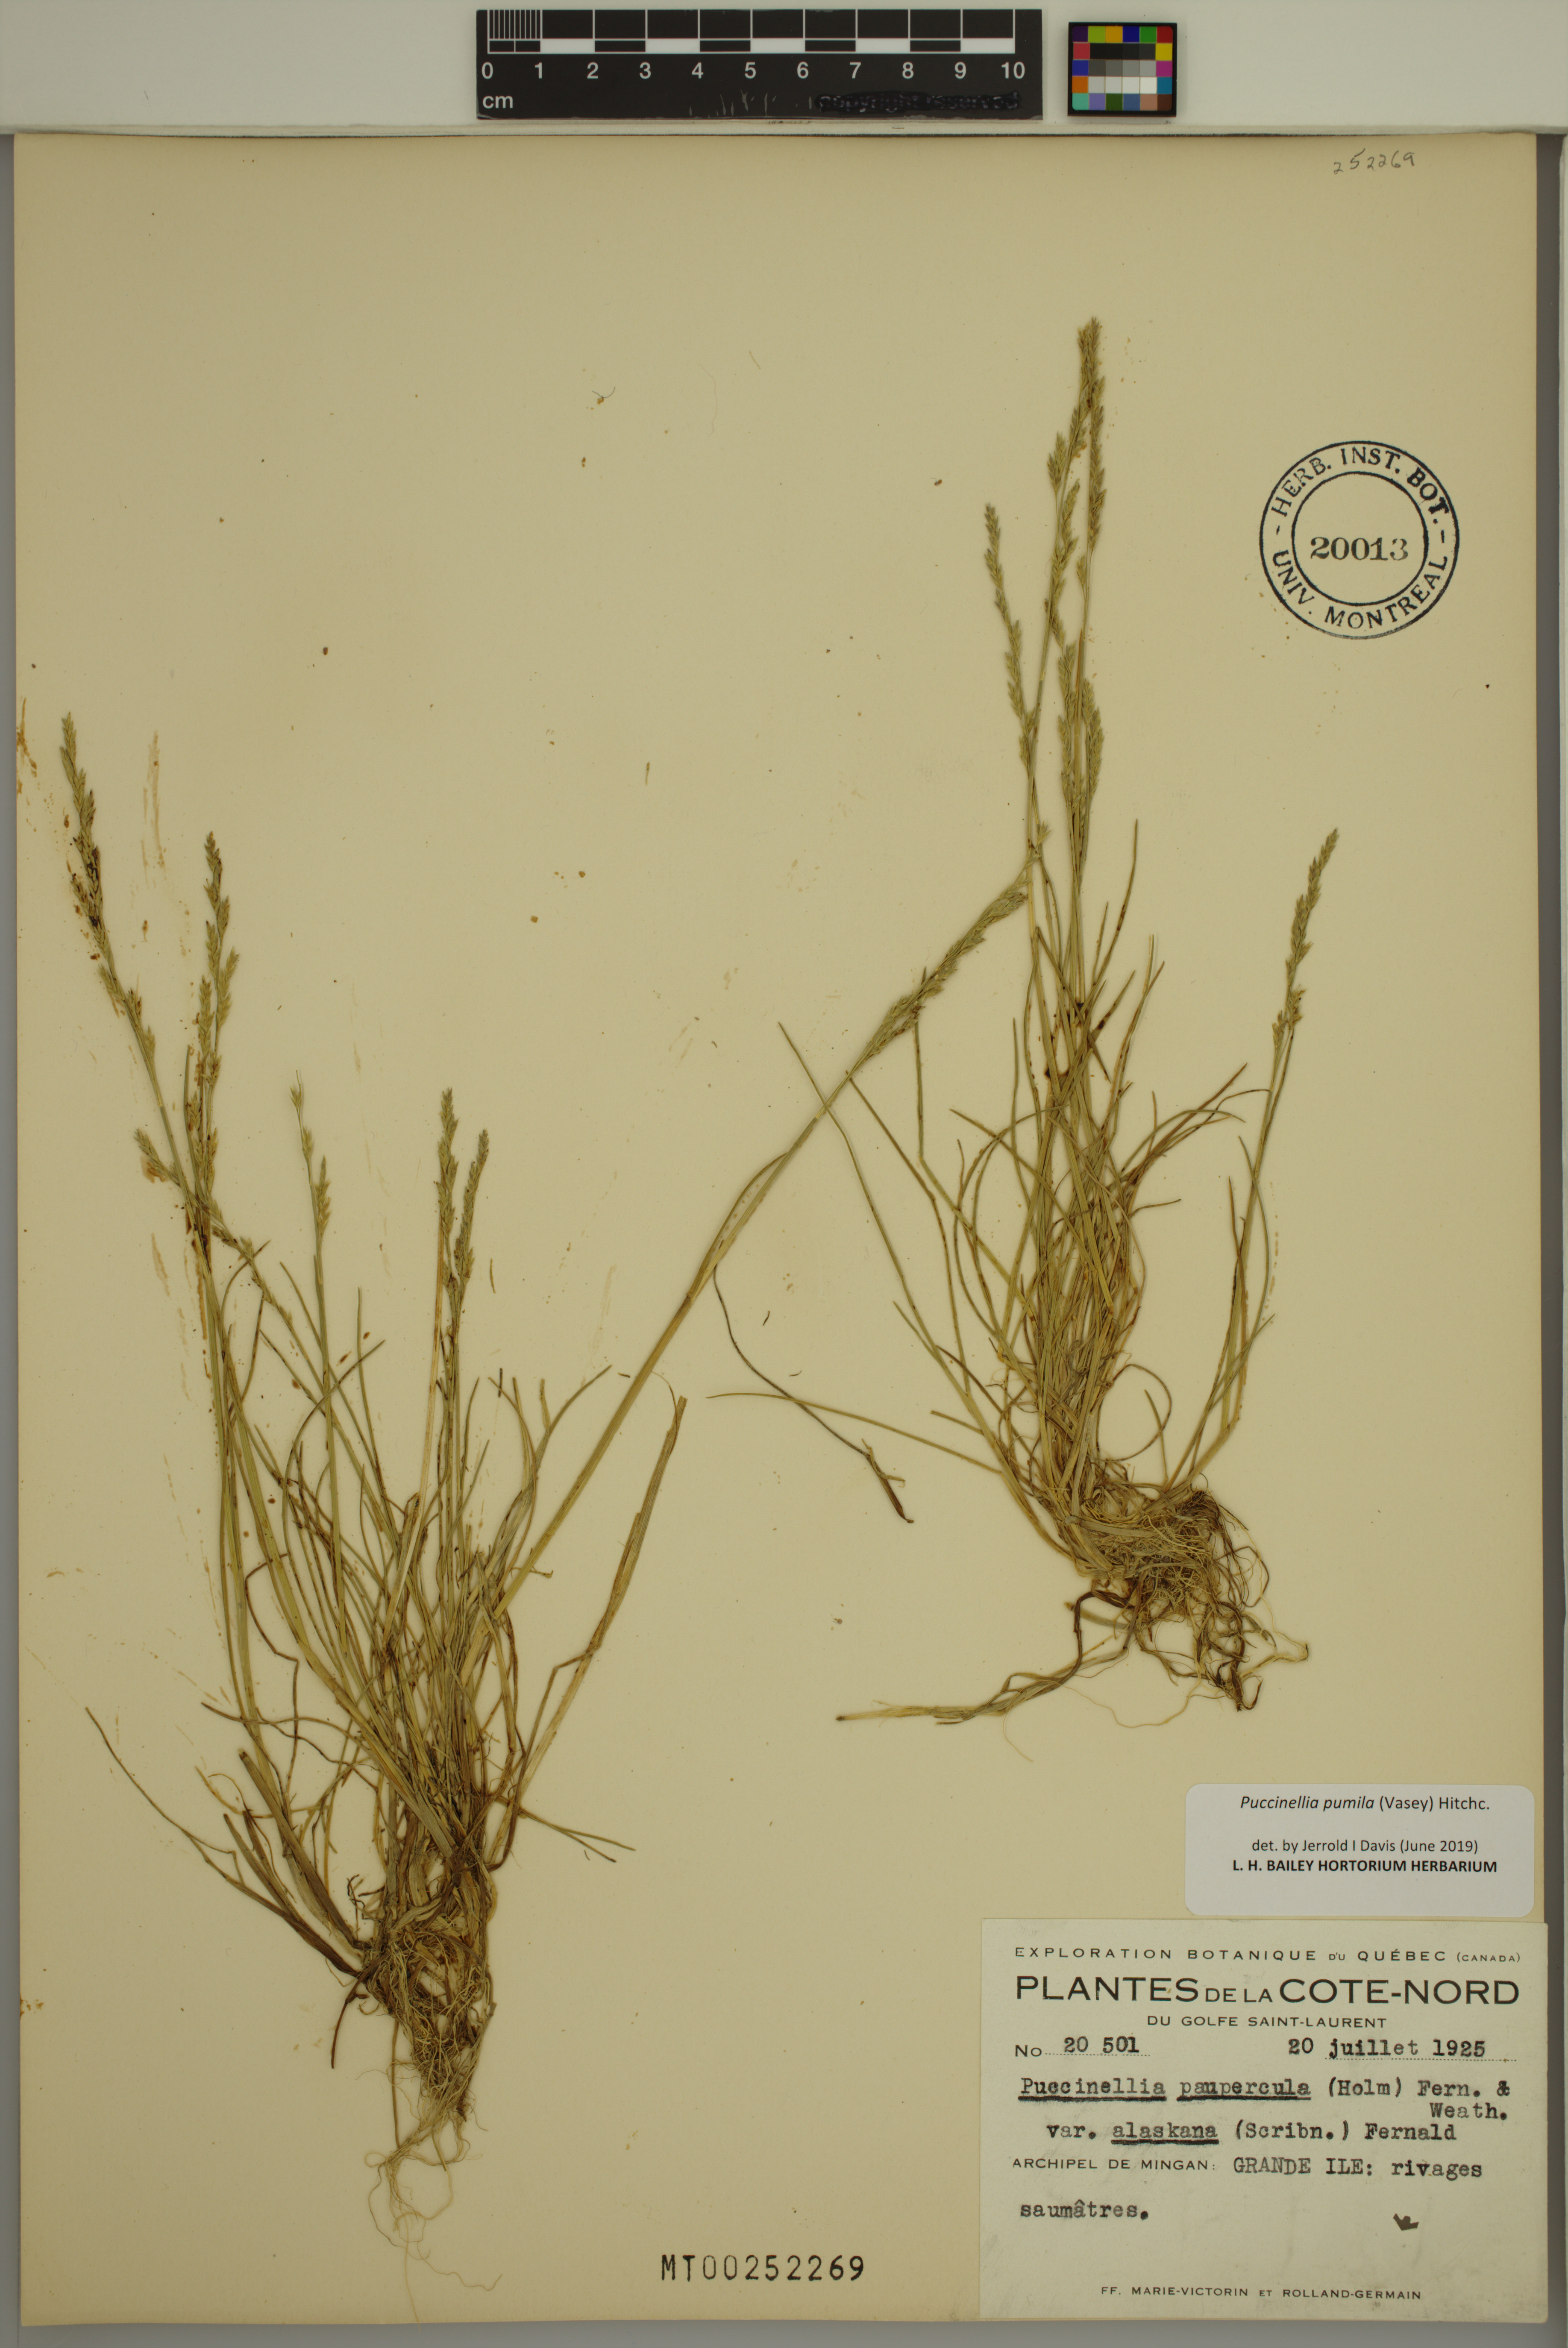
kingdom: Plantae
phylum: Tracheophyta
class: Liliopsida
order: Poales
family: Poaceae
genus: Puccinellia
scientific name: Puccinellia pumila
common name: Dwarf alkaligrass
